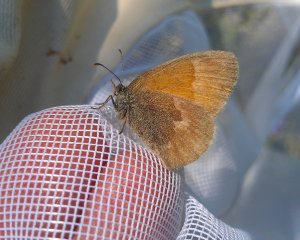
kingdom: Animalia
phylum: Arthropoda
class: Insecta
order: Lepidoptera
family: Nymphalidae
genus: Coenonympha
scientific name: Coenonympha tullia
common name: Large Heath
